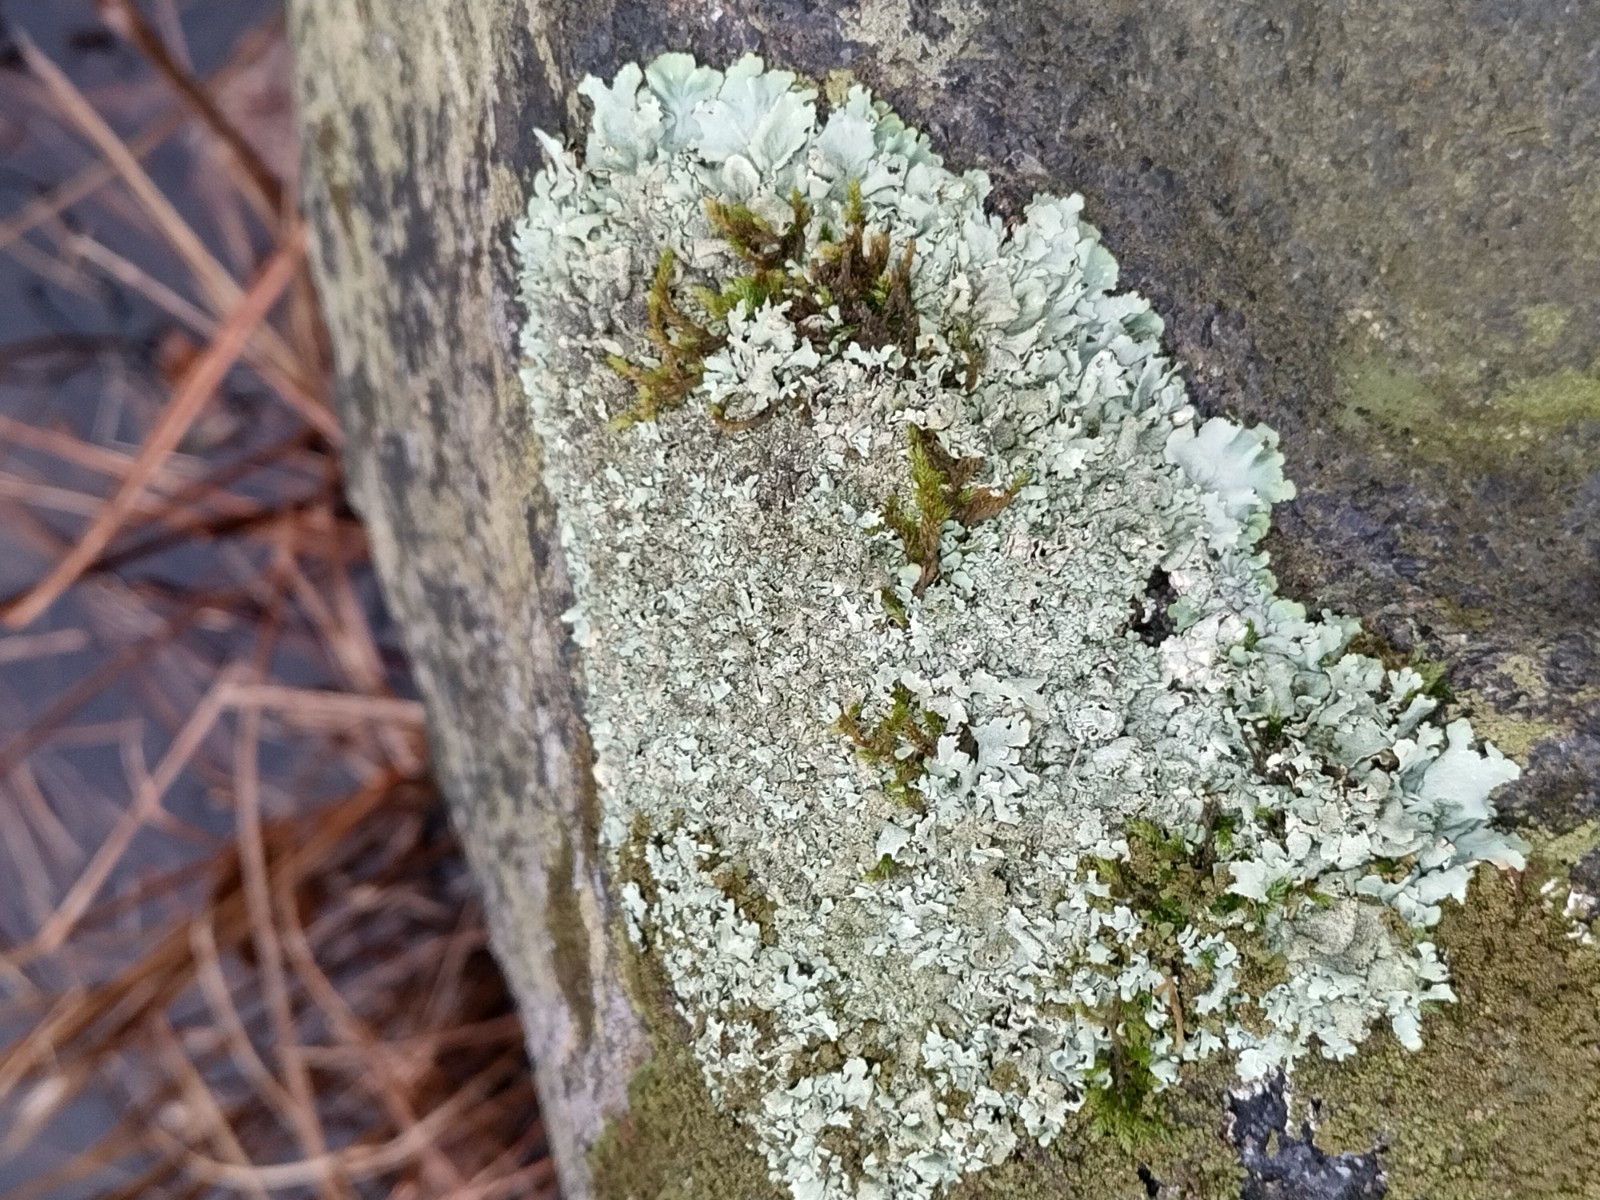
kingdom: Fungi
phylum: Ascomycota
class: Lecanoromycetes
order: Lecanorales
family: Parmeliaceae
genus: Xanthoparmelia
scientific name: Xanthoparmelia
